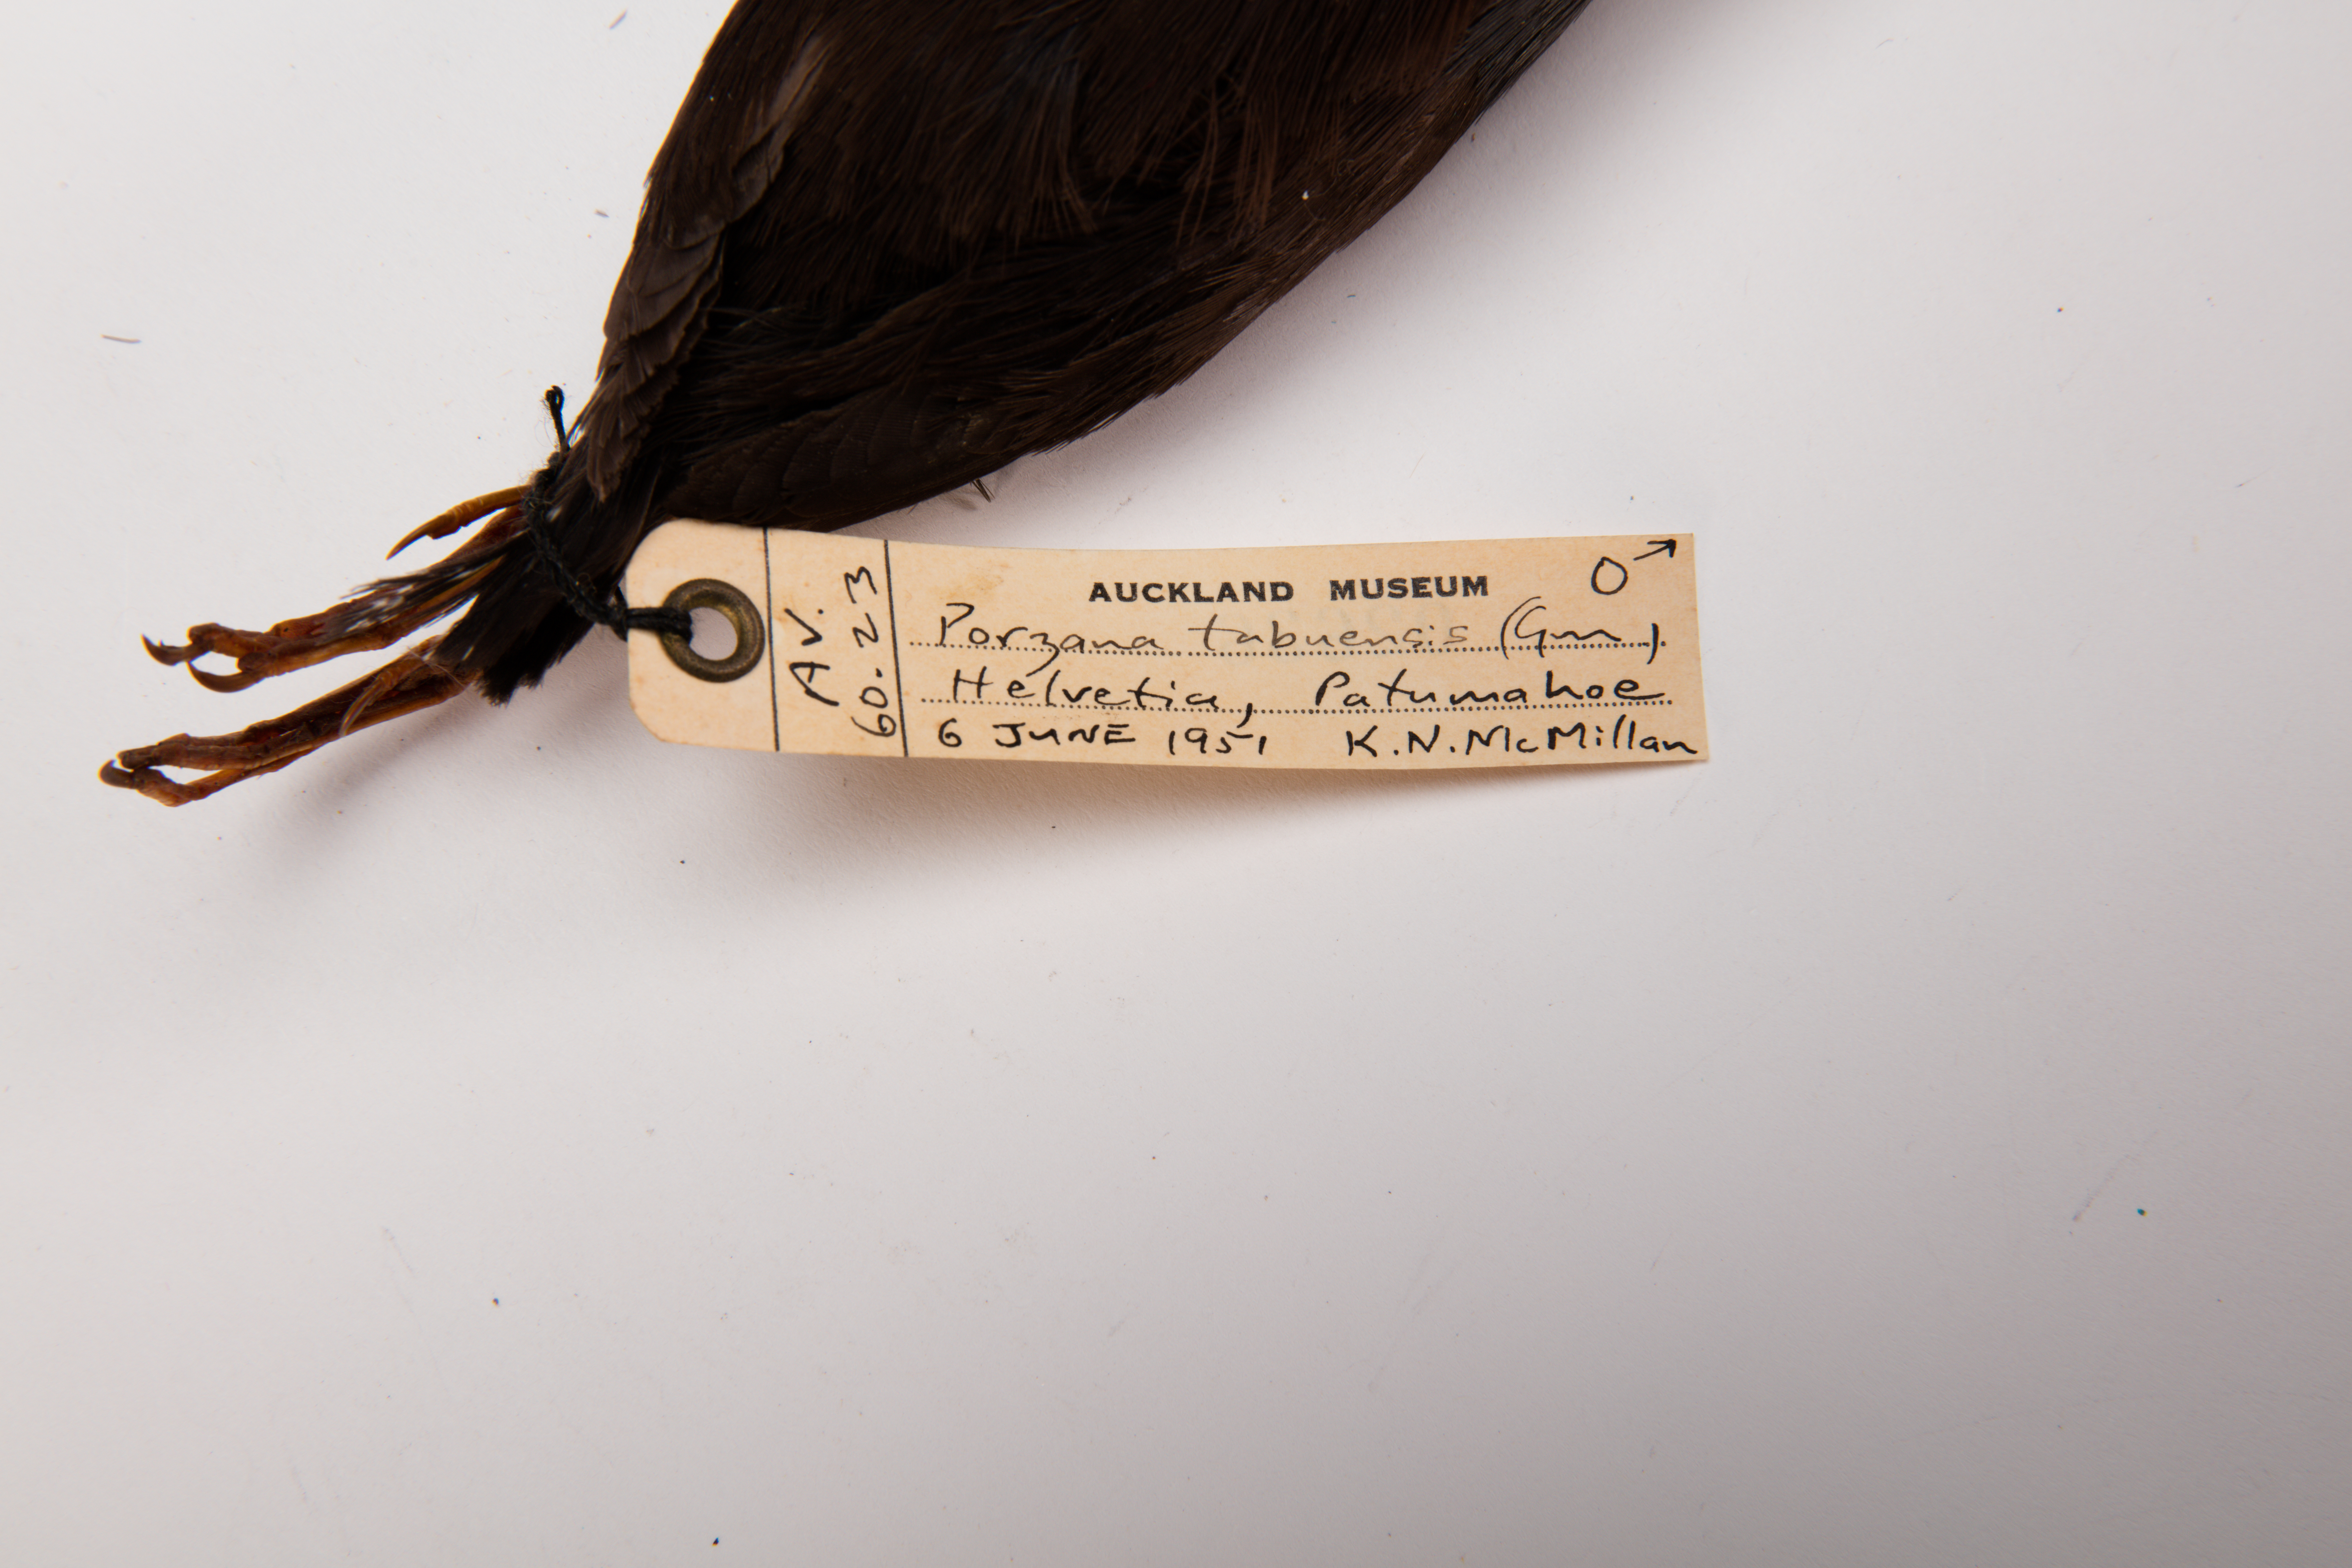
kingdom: Animalia
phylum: Chordata
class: Aves
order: Gruiformes
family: Rallidae
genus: Porzana
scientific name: Porzana tabuensis
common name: Spotless crake
